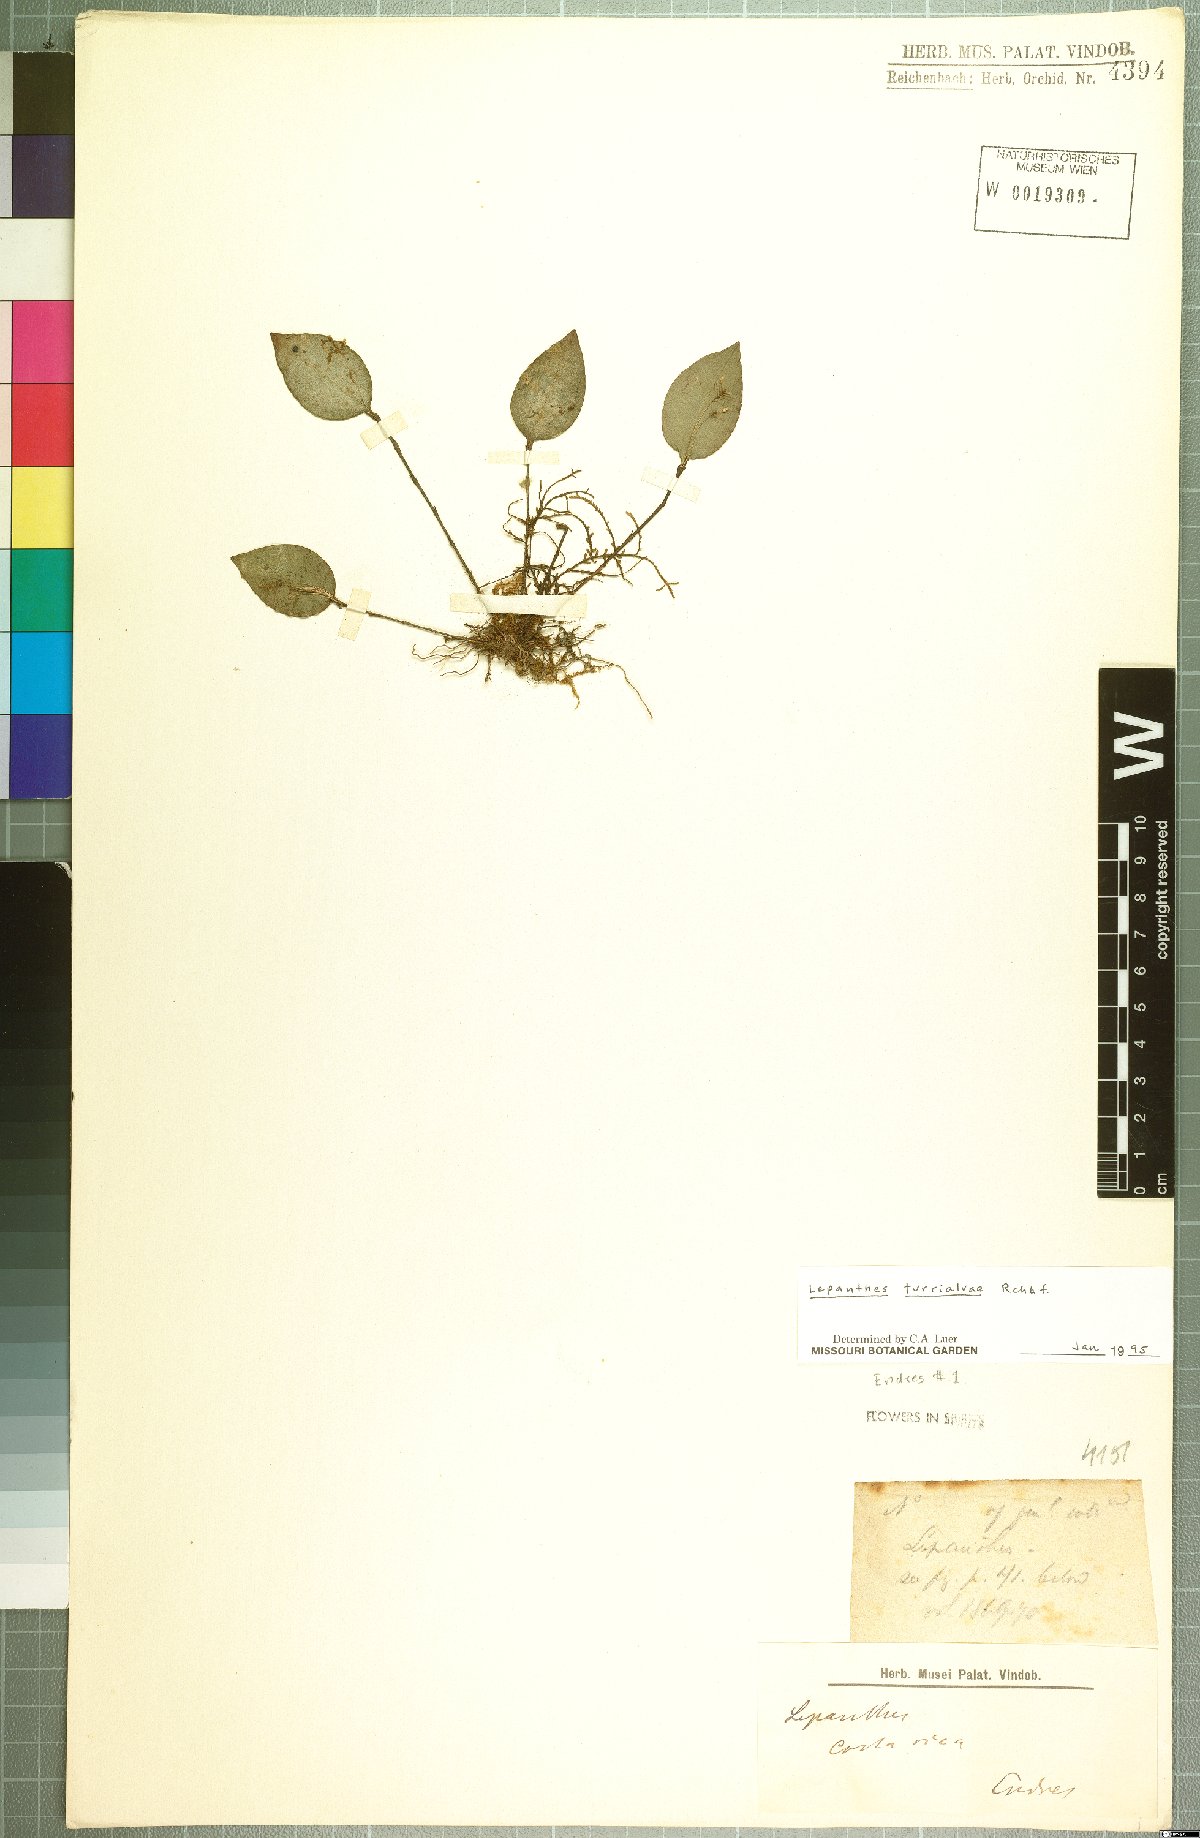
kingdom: Plantae
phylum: Tracheophyta
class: Liliopsida
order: Asparagales
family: Orchidaceae
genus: Lepanthes
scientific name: Lepanthes turialvae
